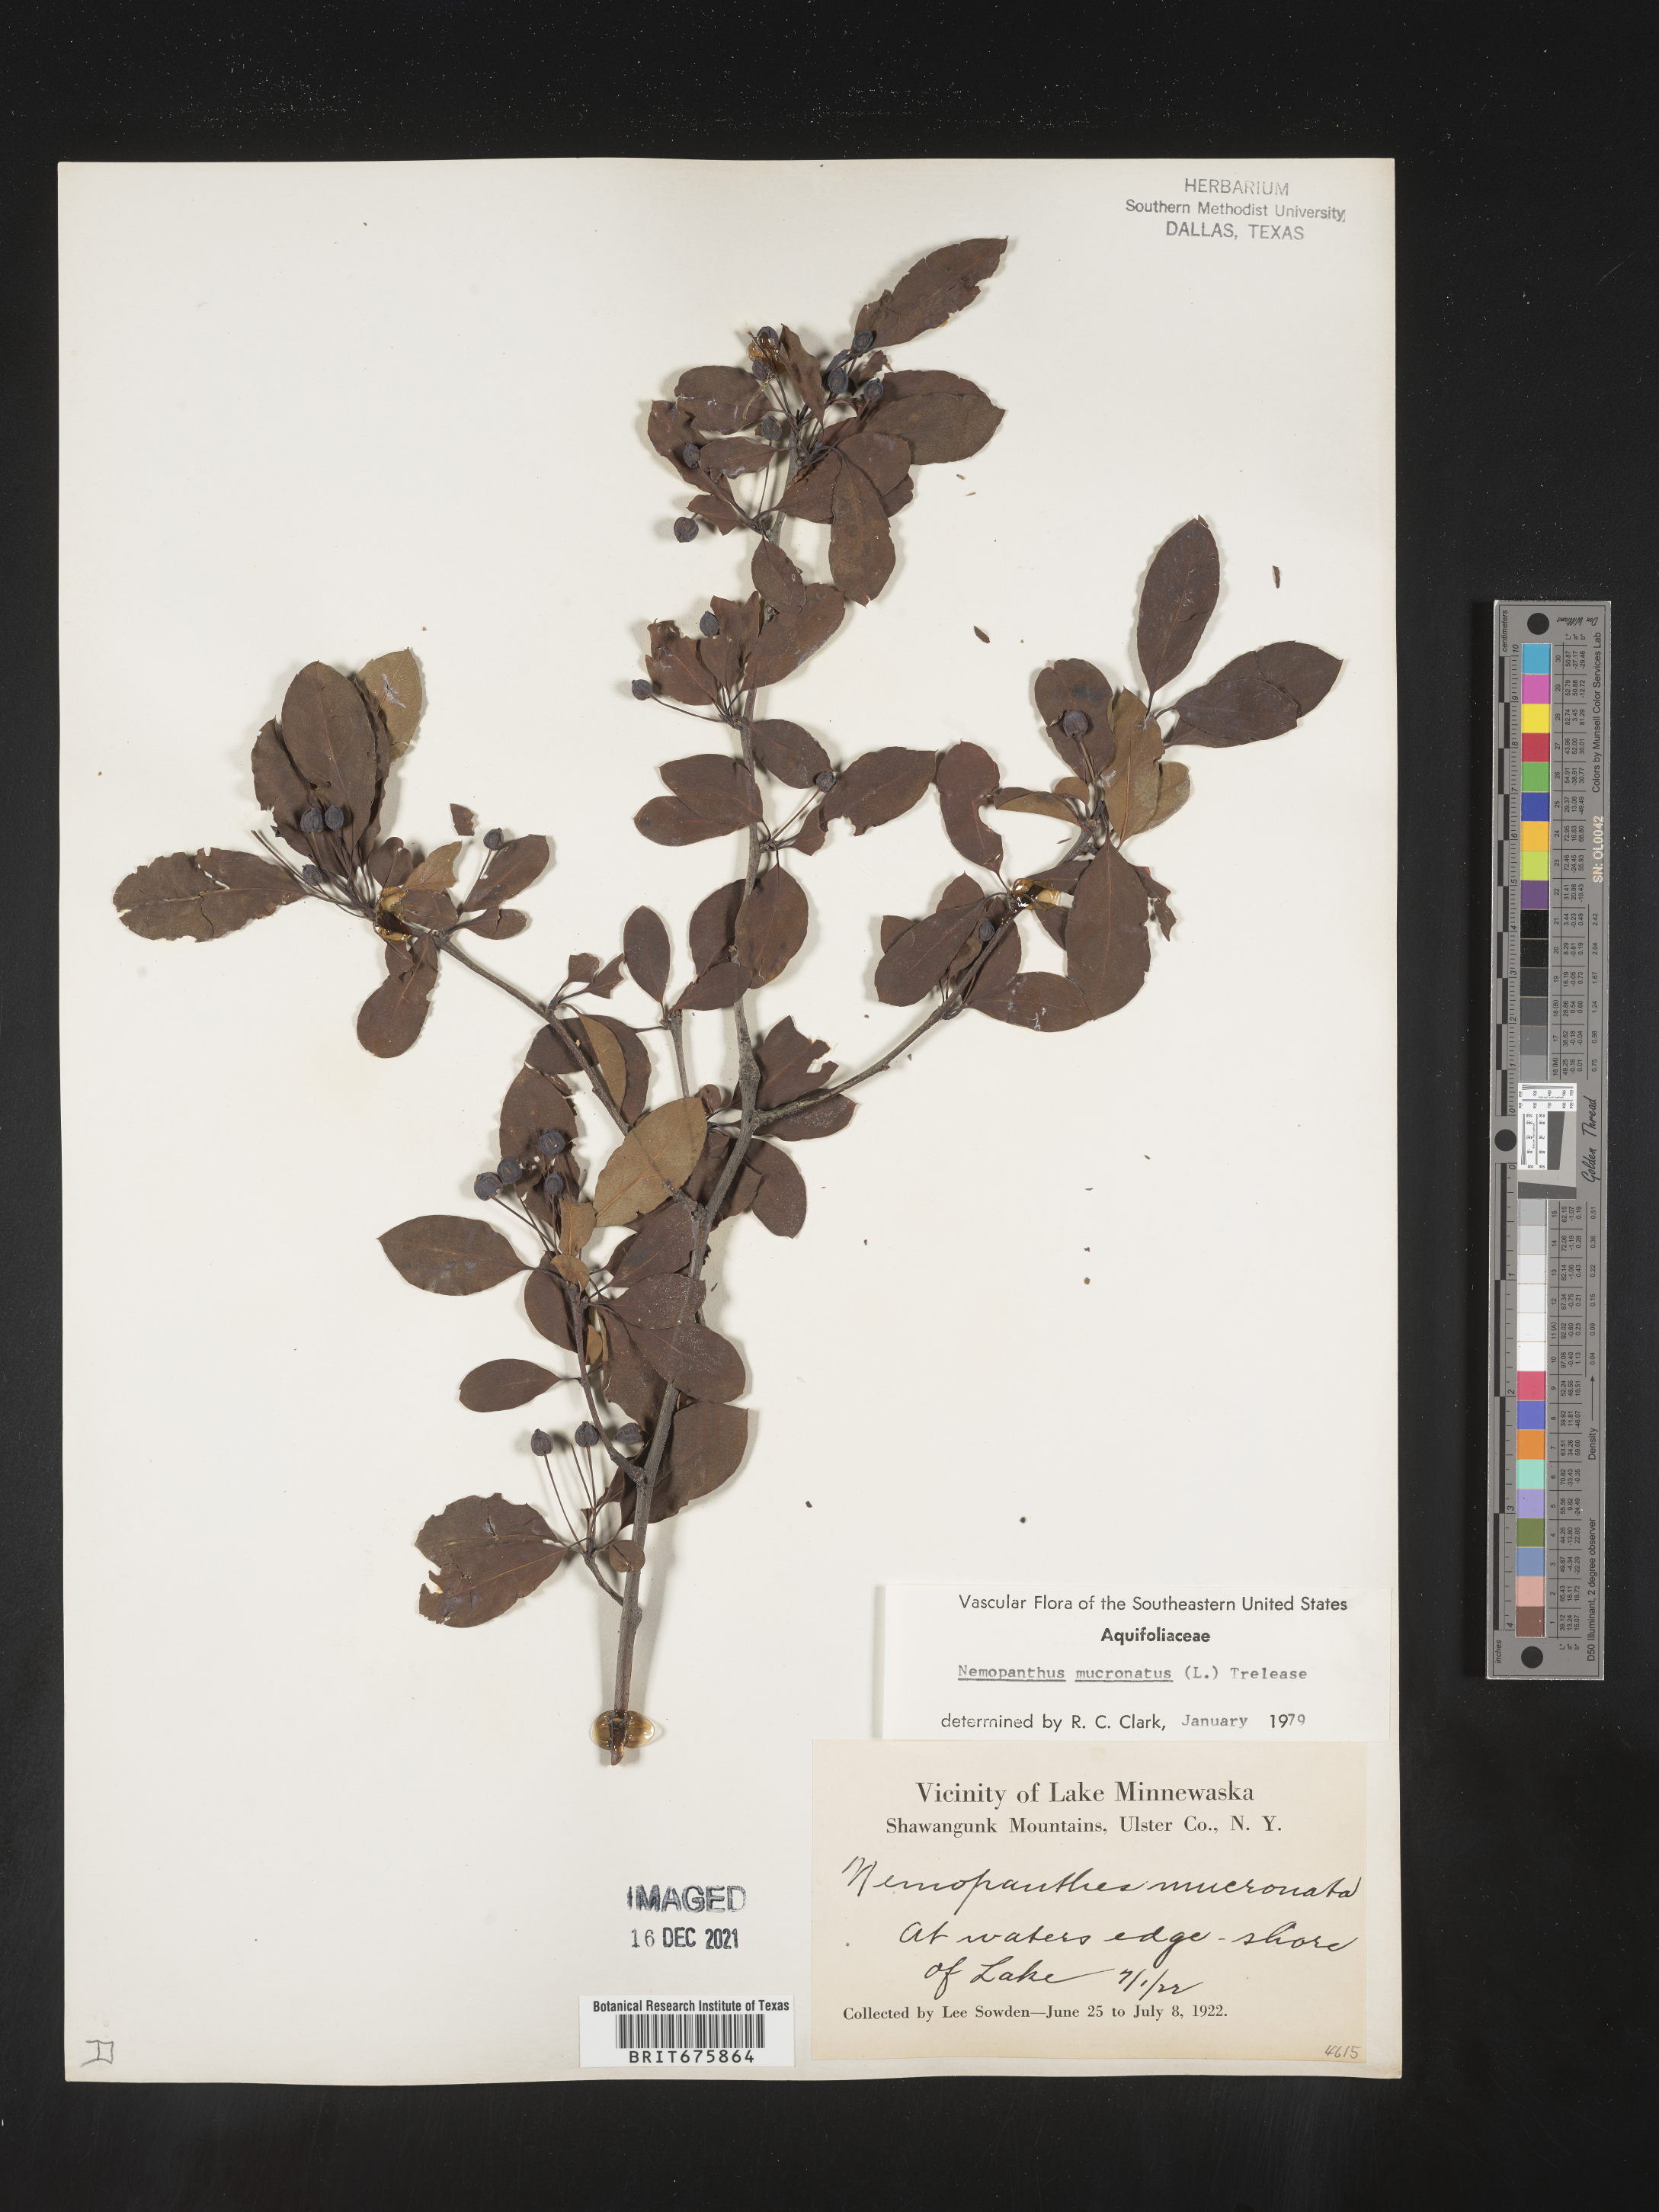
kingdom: Plantae
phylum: Tracheophyta
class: Magnoliopsida
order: Aquifoliales
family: Aquifoliaceae
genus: Ilex
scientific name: Ilex mucronata
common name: Catberry
